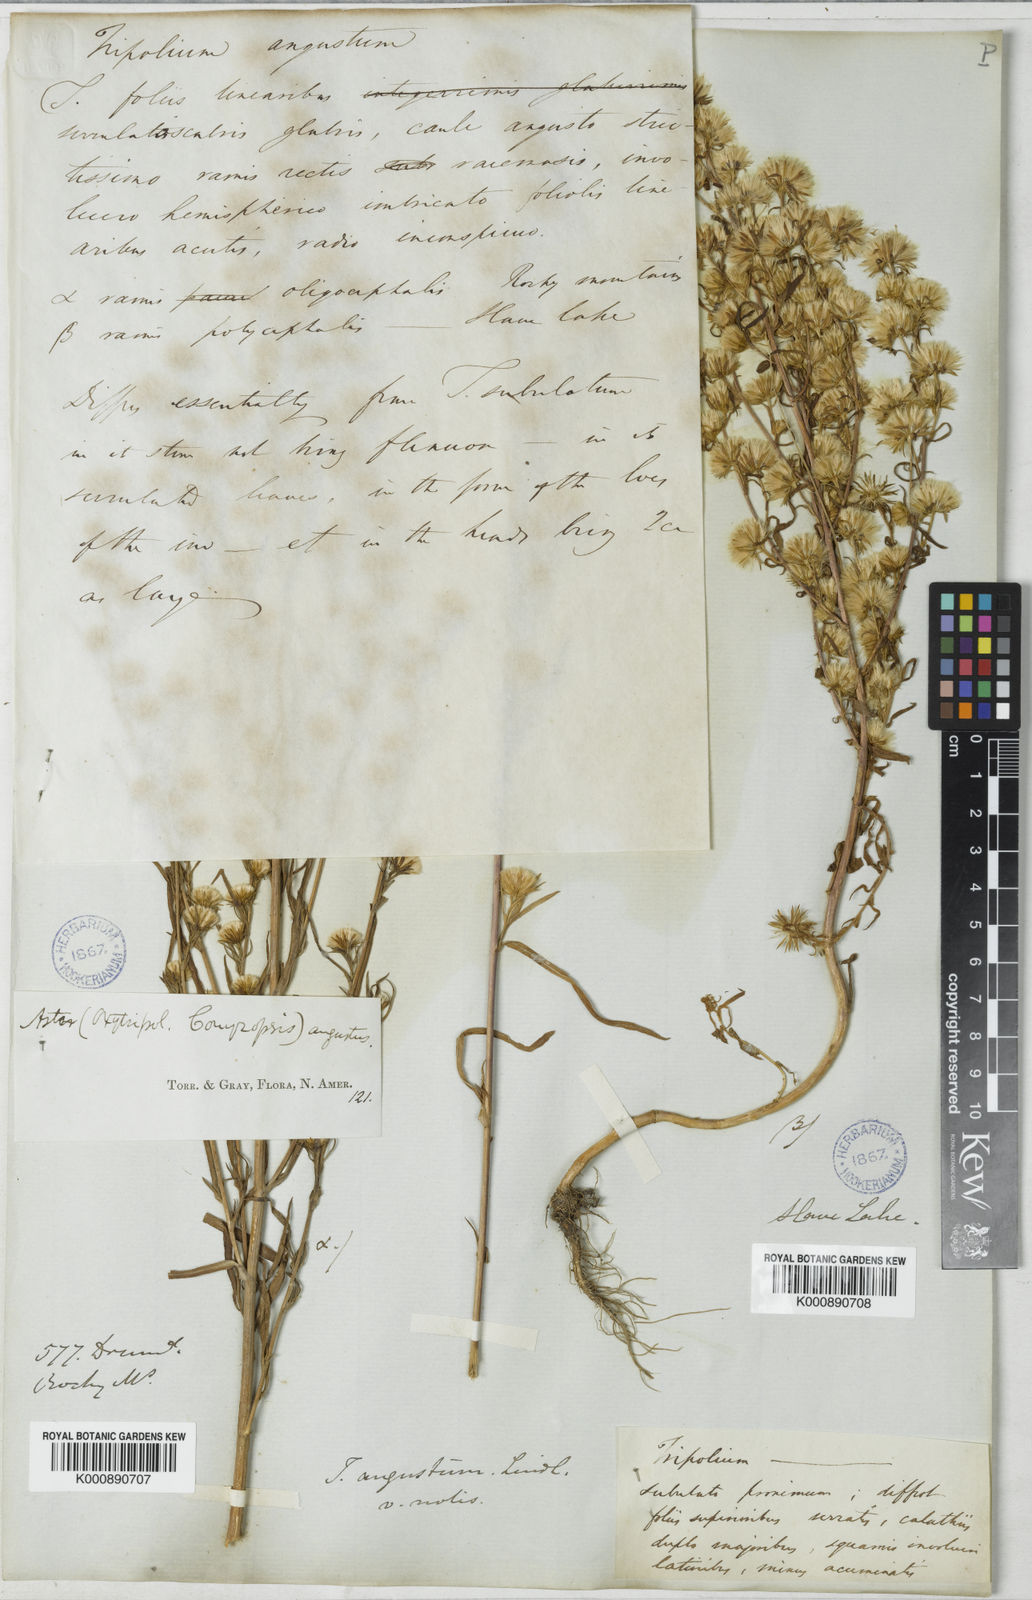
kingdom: Plantae
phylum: Tracheophyta
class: Magnoliopsida
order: Asterales
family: Asteraceae
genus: Aster
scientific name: Aster
